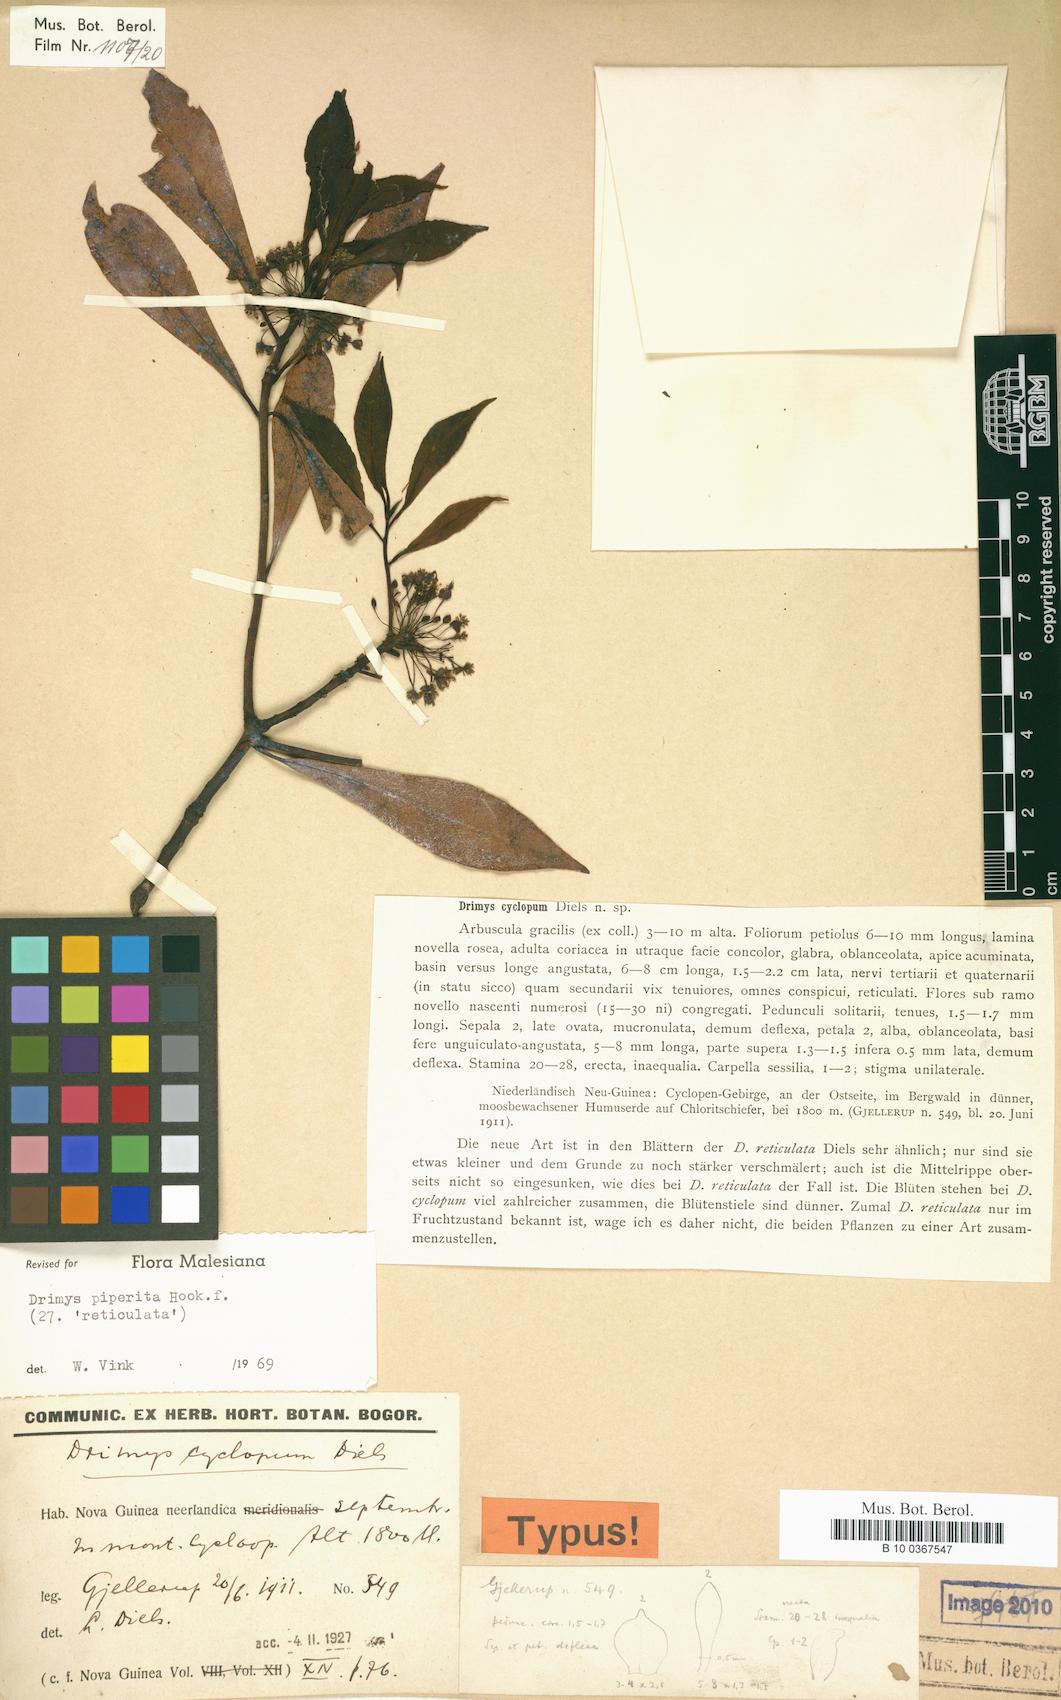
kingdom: Plantae
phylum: Tracheophyta
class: Magnoliopsida
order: Canellales
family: Winteraceae
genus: Drimys
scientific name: Drimys piperita
